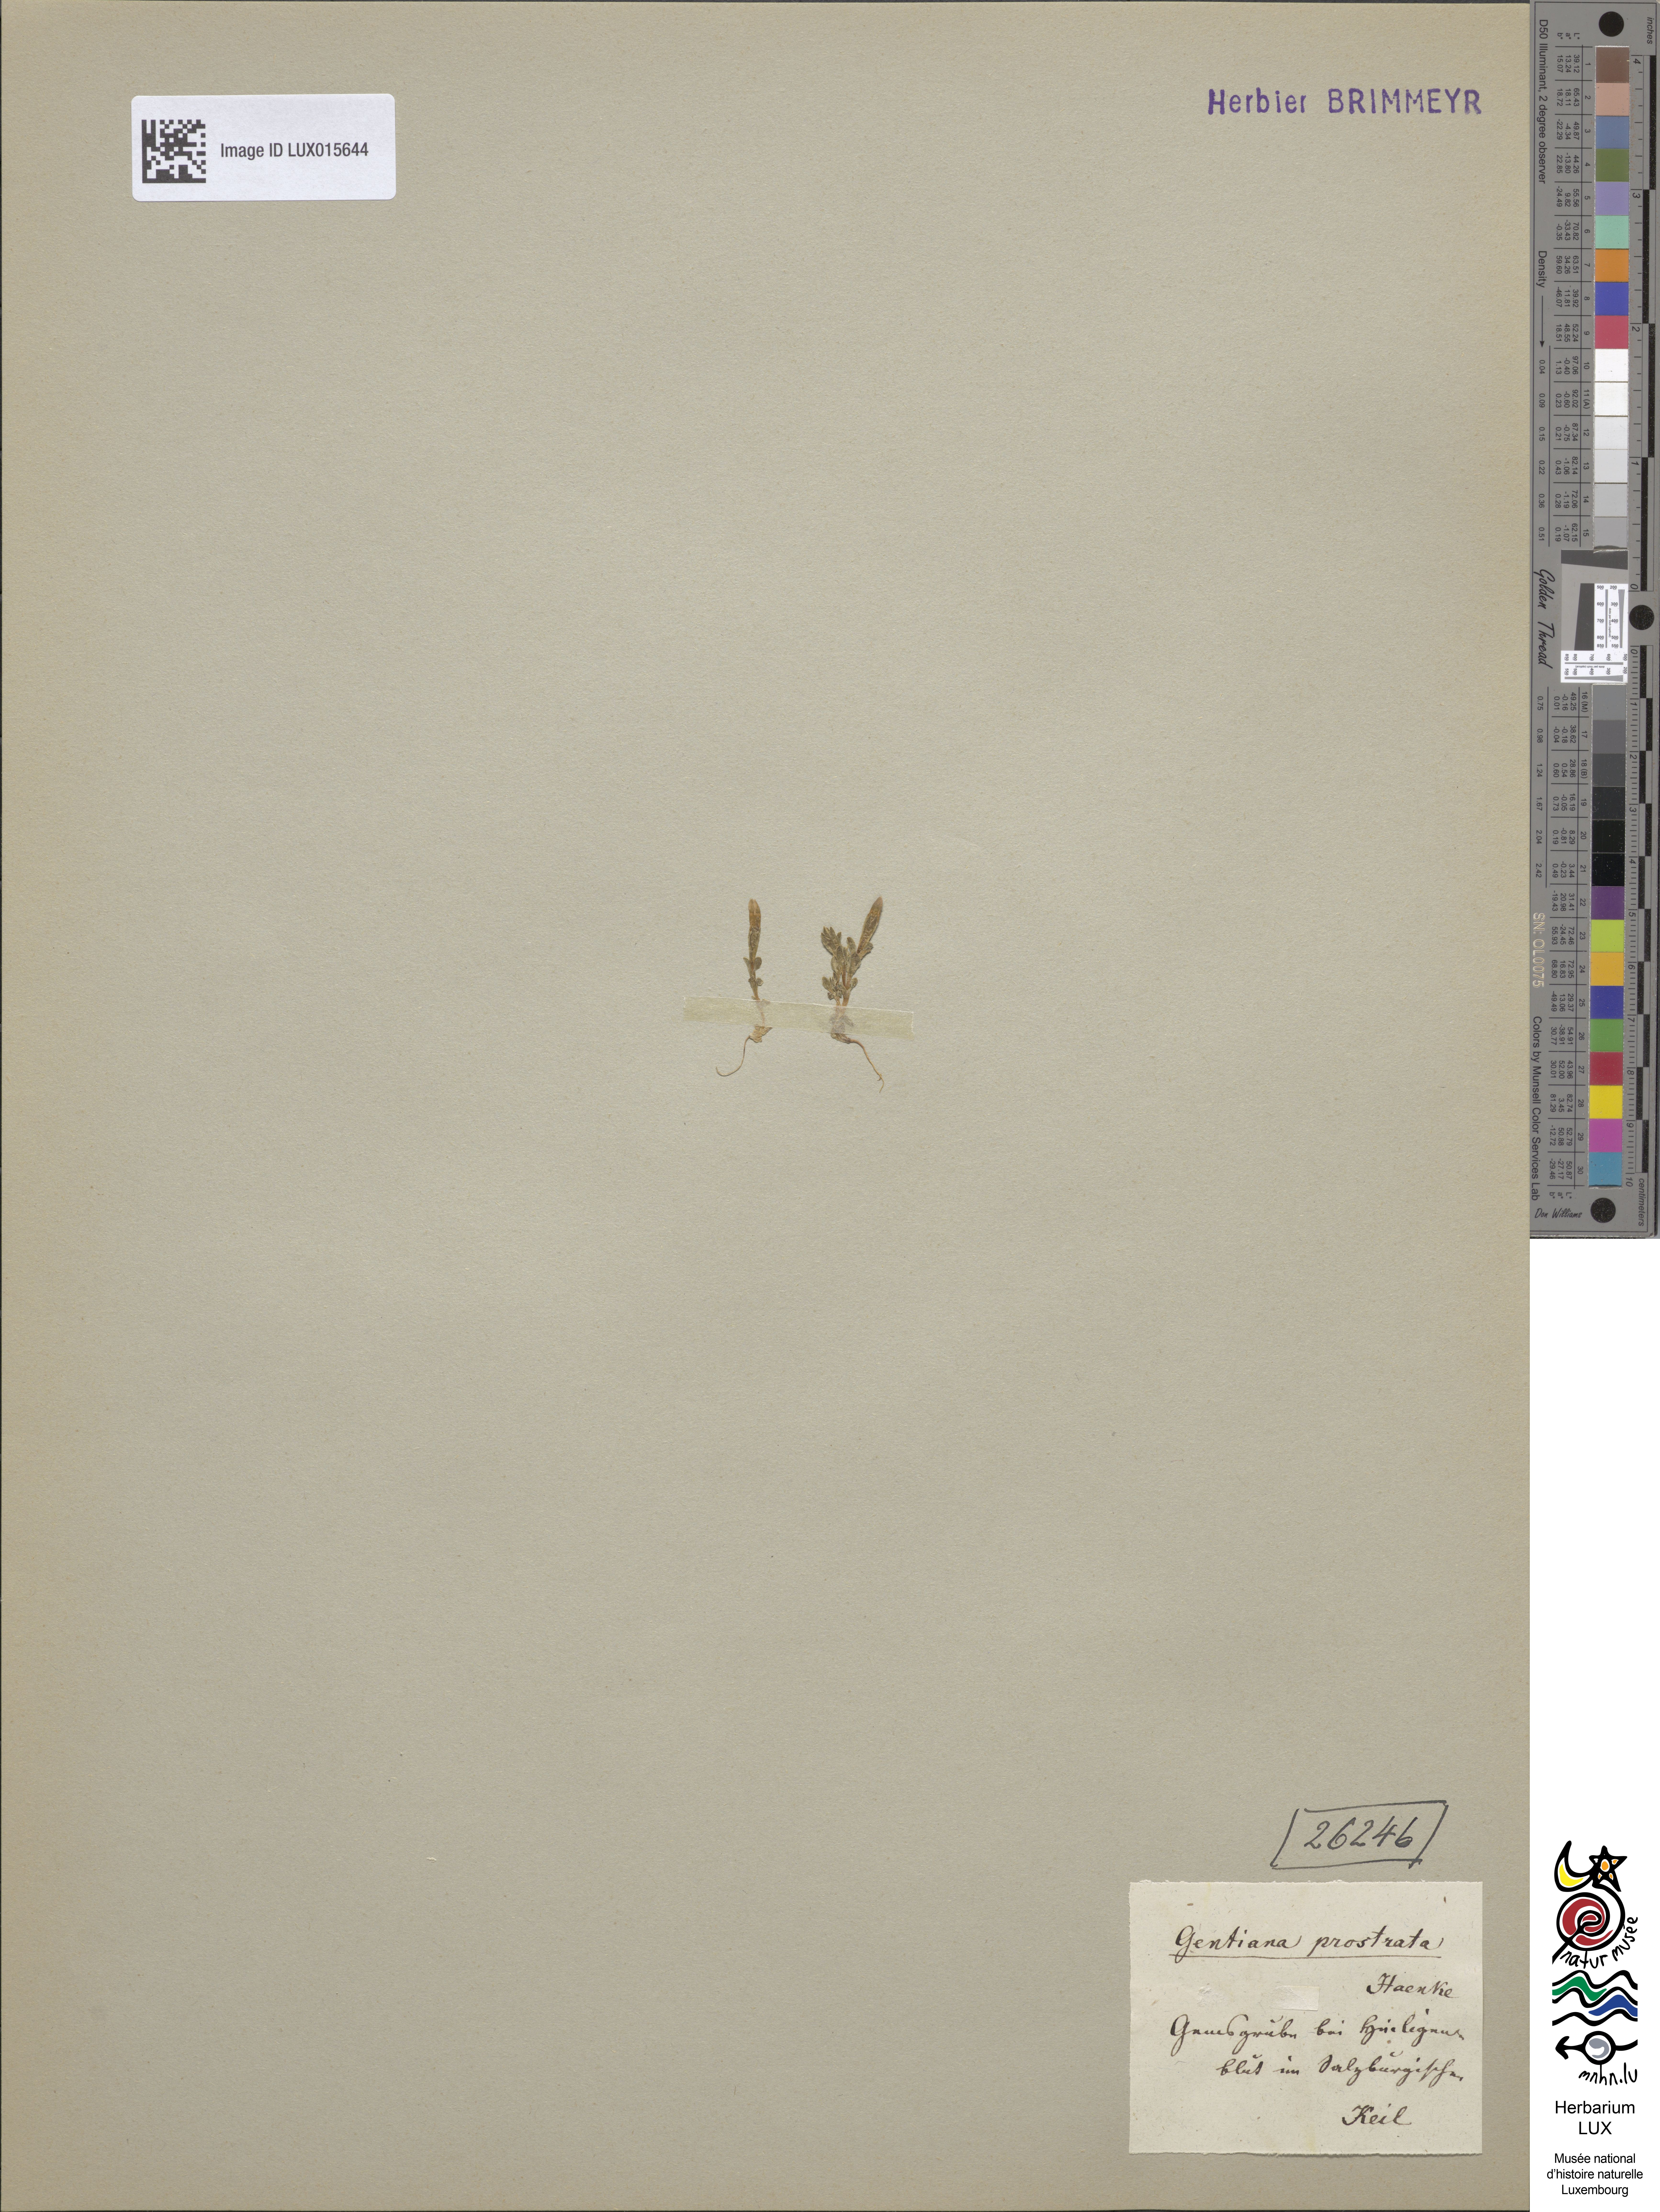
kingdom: Plantae
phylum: Tracheophyta
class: Magnoliopsida
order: Gentianales
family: Gentianaceae
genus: Gentiana
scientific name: Gentiana prostrata
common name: Moss gentian
